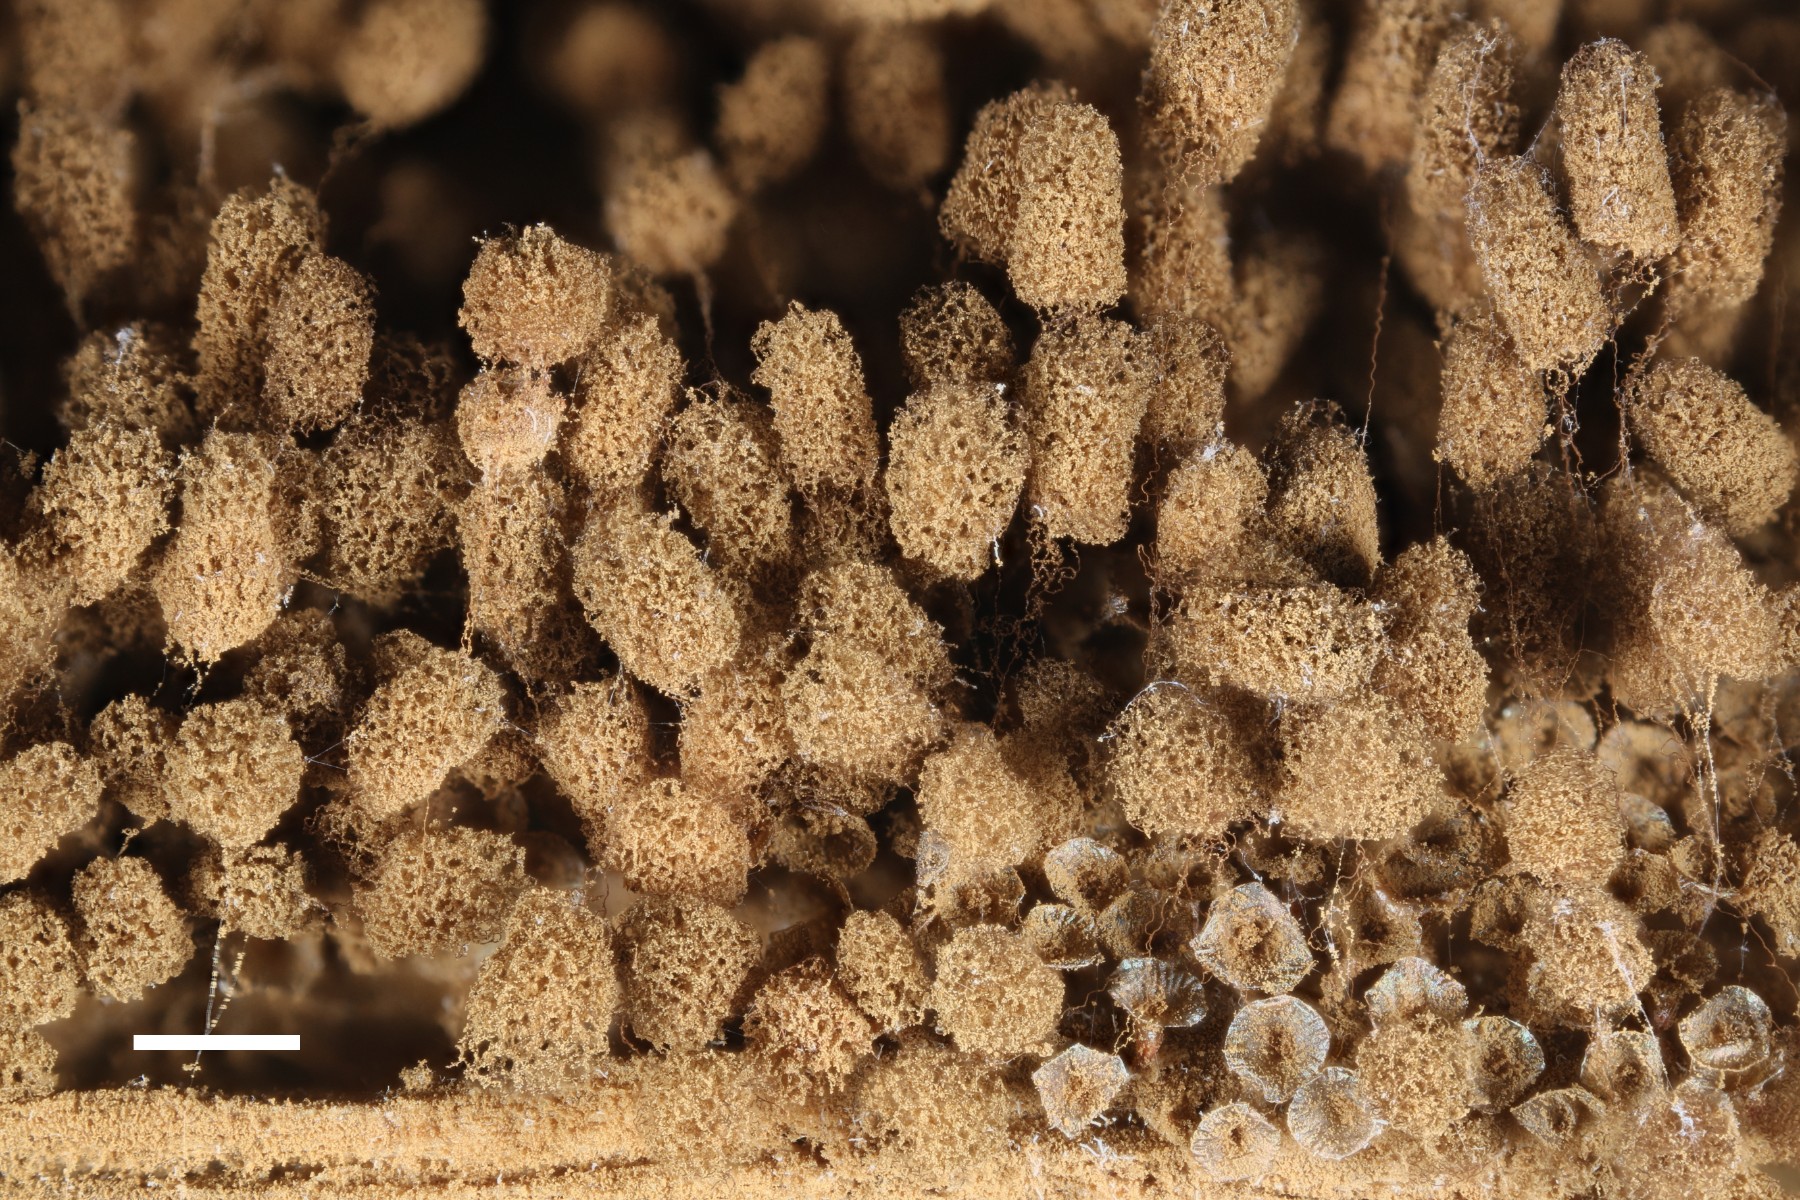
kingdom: Protozoa
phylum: Mycetozoa
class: Myxomycetes
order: Trichiales
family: Arcyriaceae
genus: Arcyria
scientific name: Arcyria ferruginea
